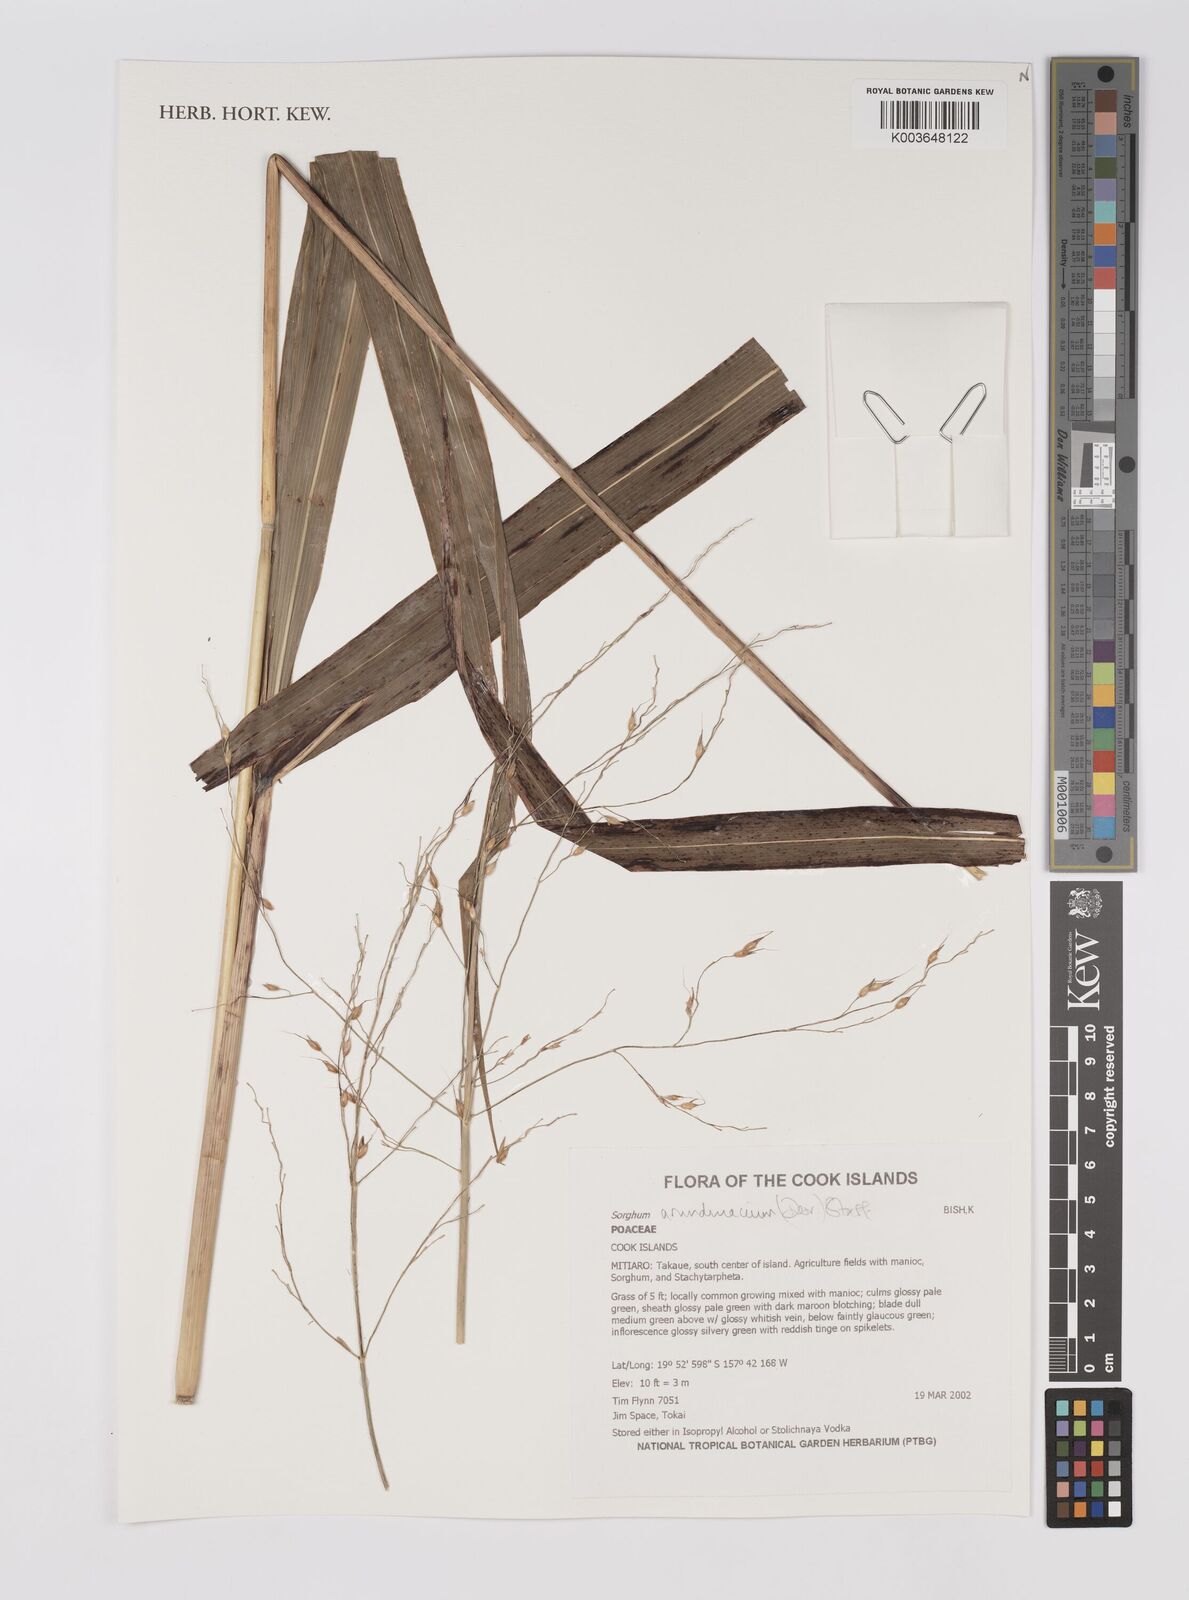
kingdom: Plantae
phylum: Tracheophyta
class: Liliopsida
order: Poales
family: Poaceae
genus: Sorghum
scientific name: Sorghum arundinaceum
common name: Sorghum
